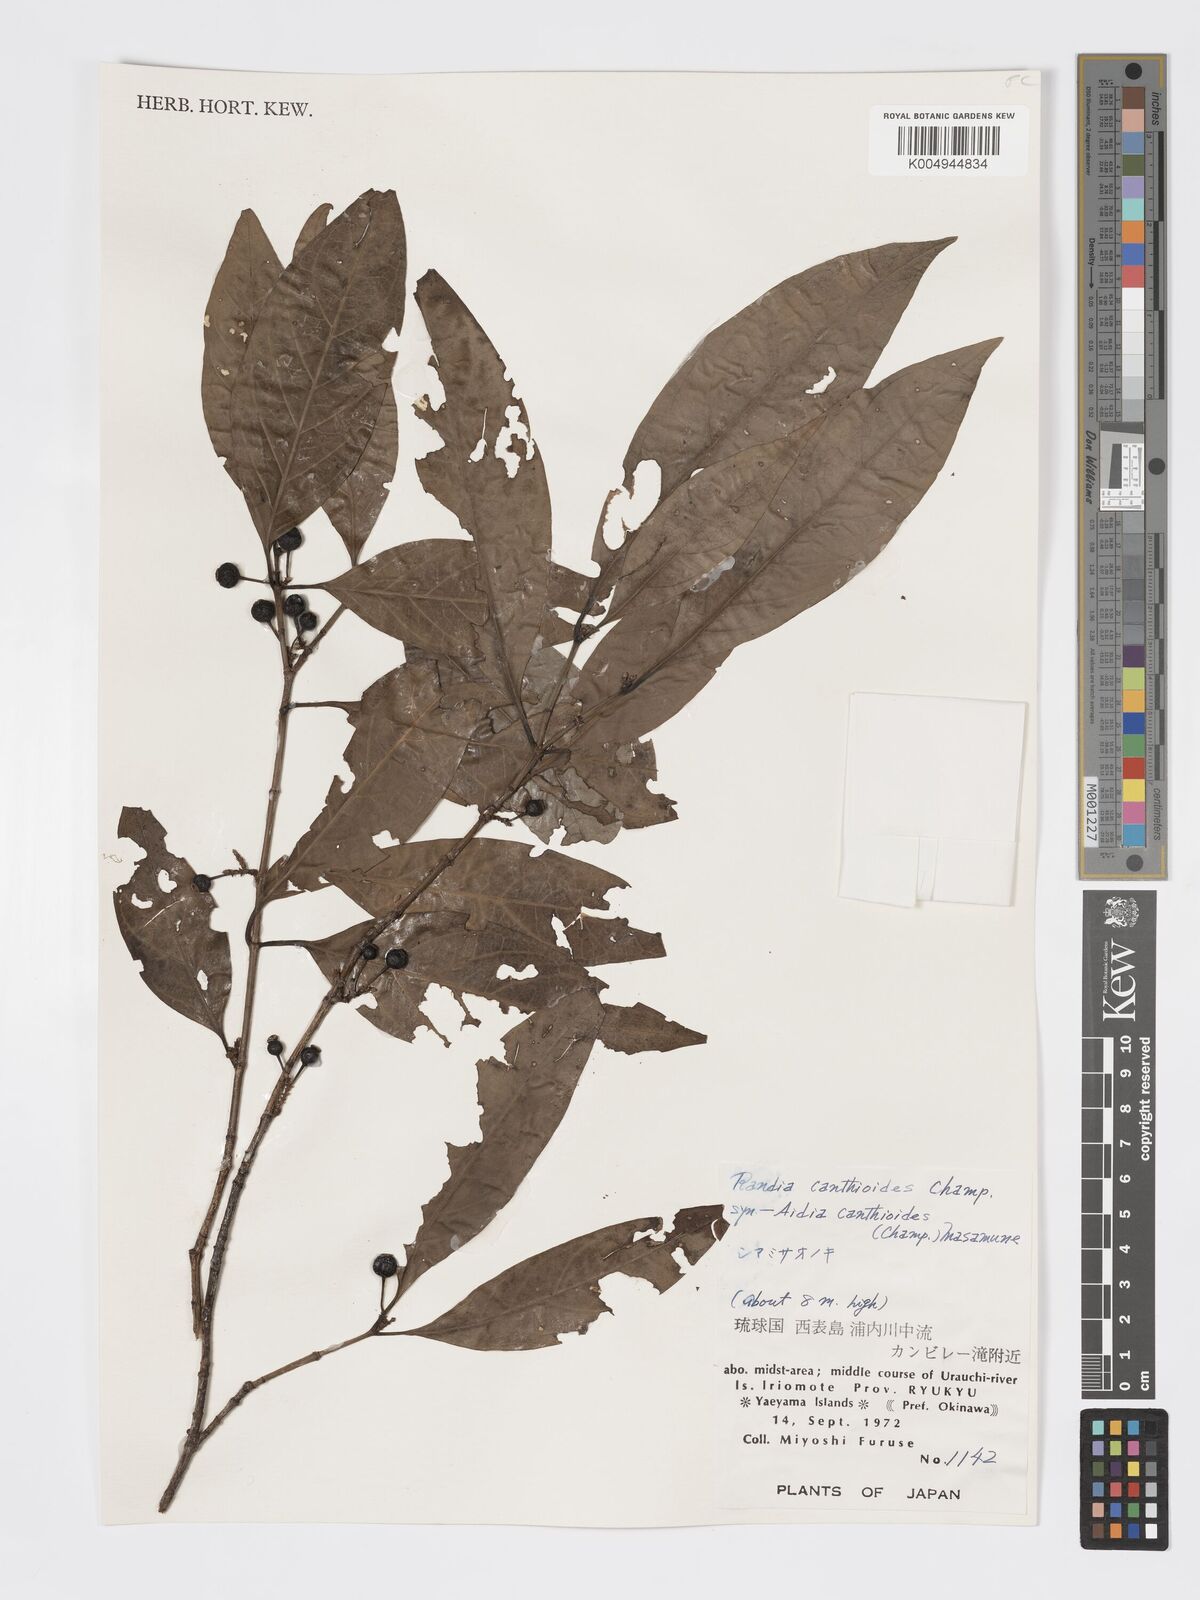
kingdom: Plantae
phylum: Tracheophyta
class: Magnoliopsida
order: Gentianales
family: Rubiaceae
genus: Aidia
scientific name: Aidia canthioides
